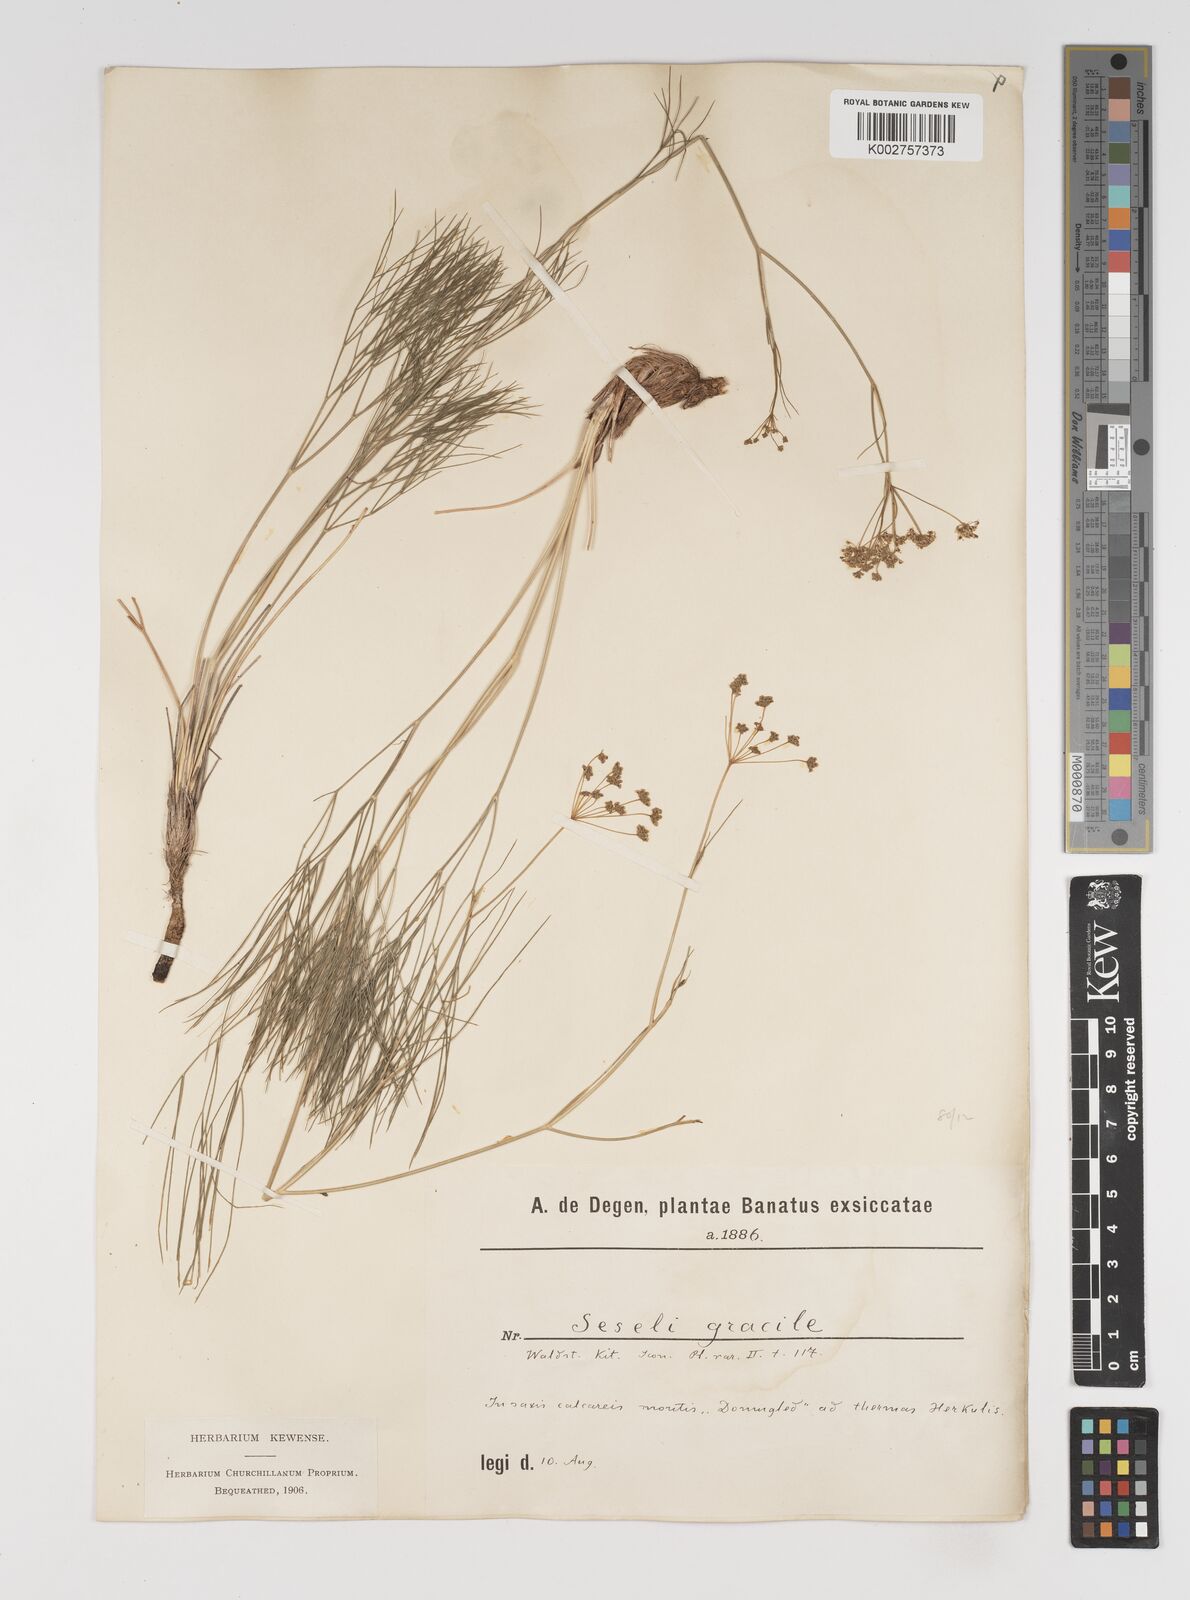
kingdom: Plantae
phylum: Tracheophyta
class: Magnoliopsida
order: Apiales
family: Apiaceae
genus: Seseli
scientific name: Seseli gracile
